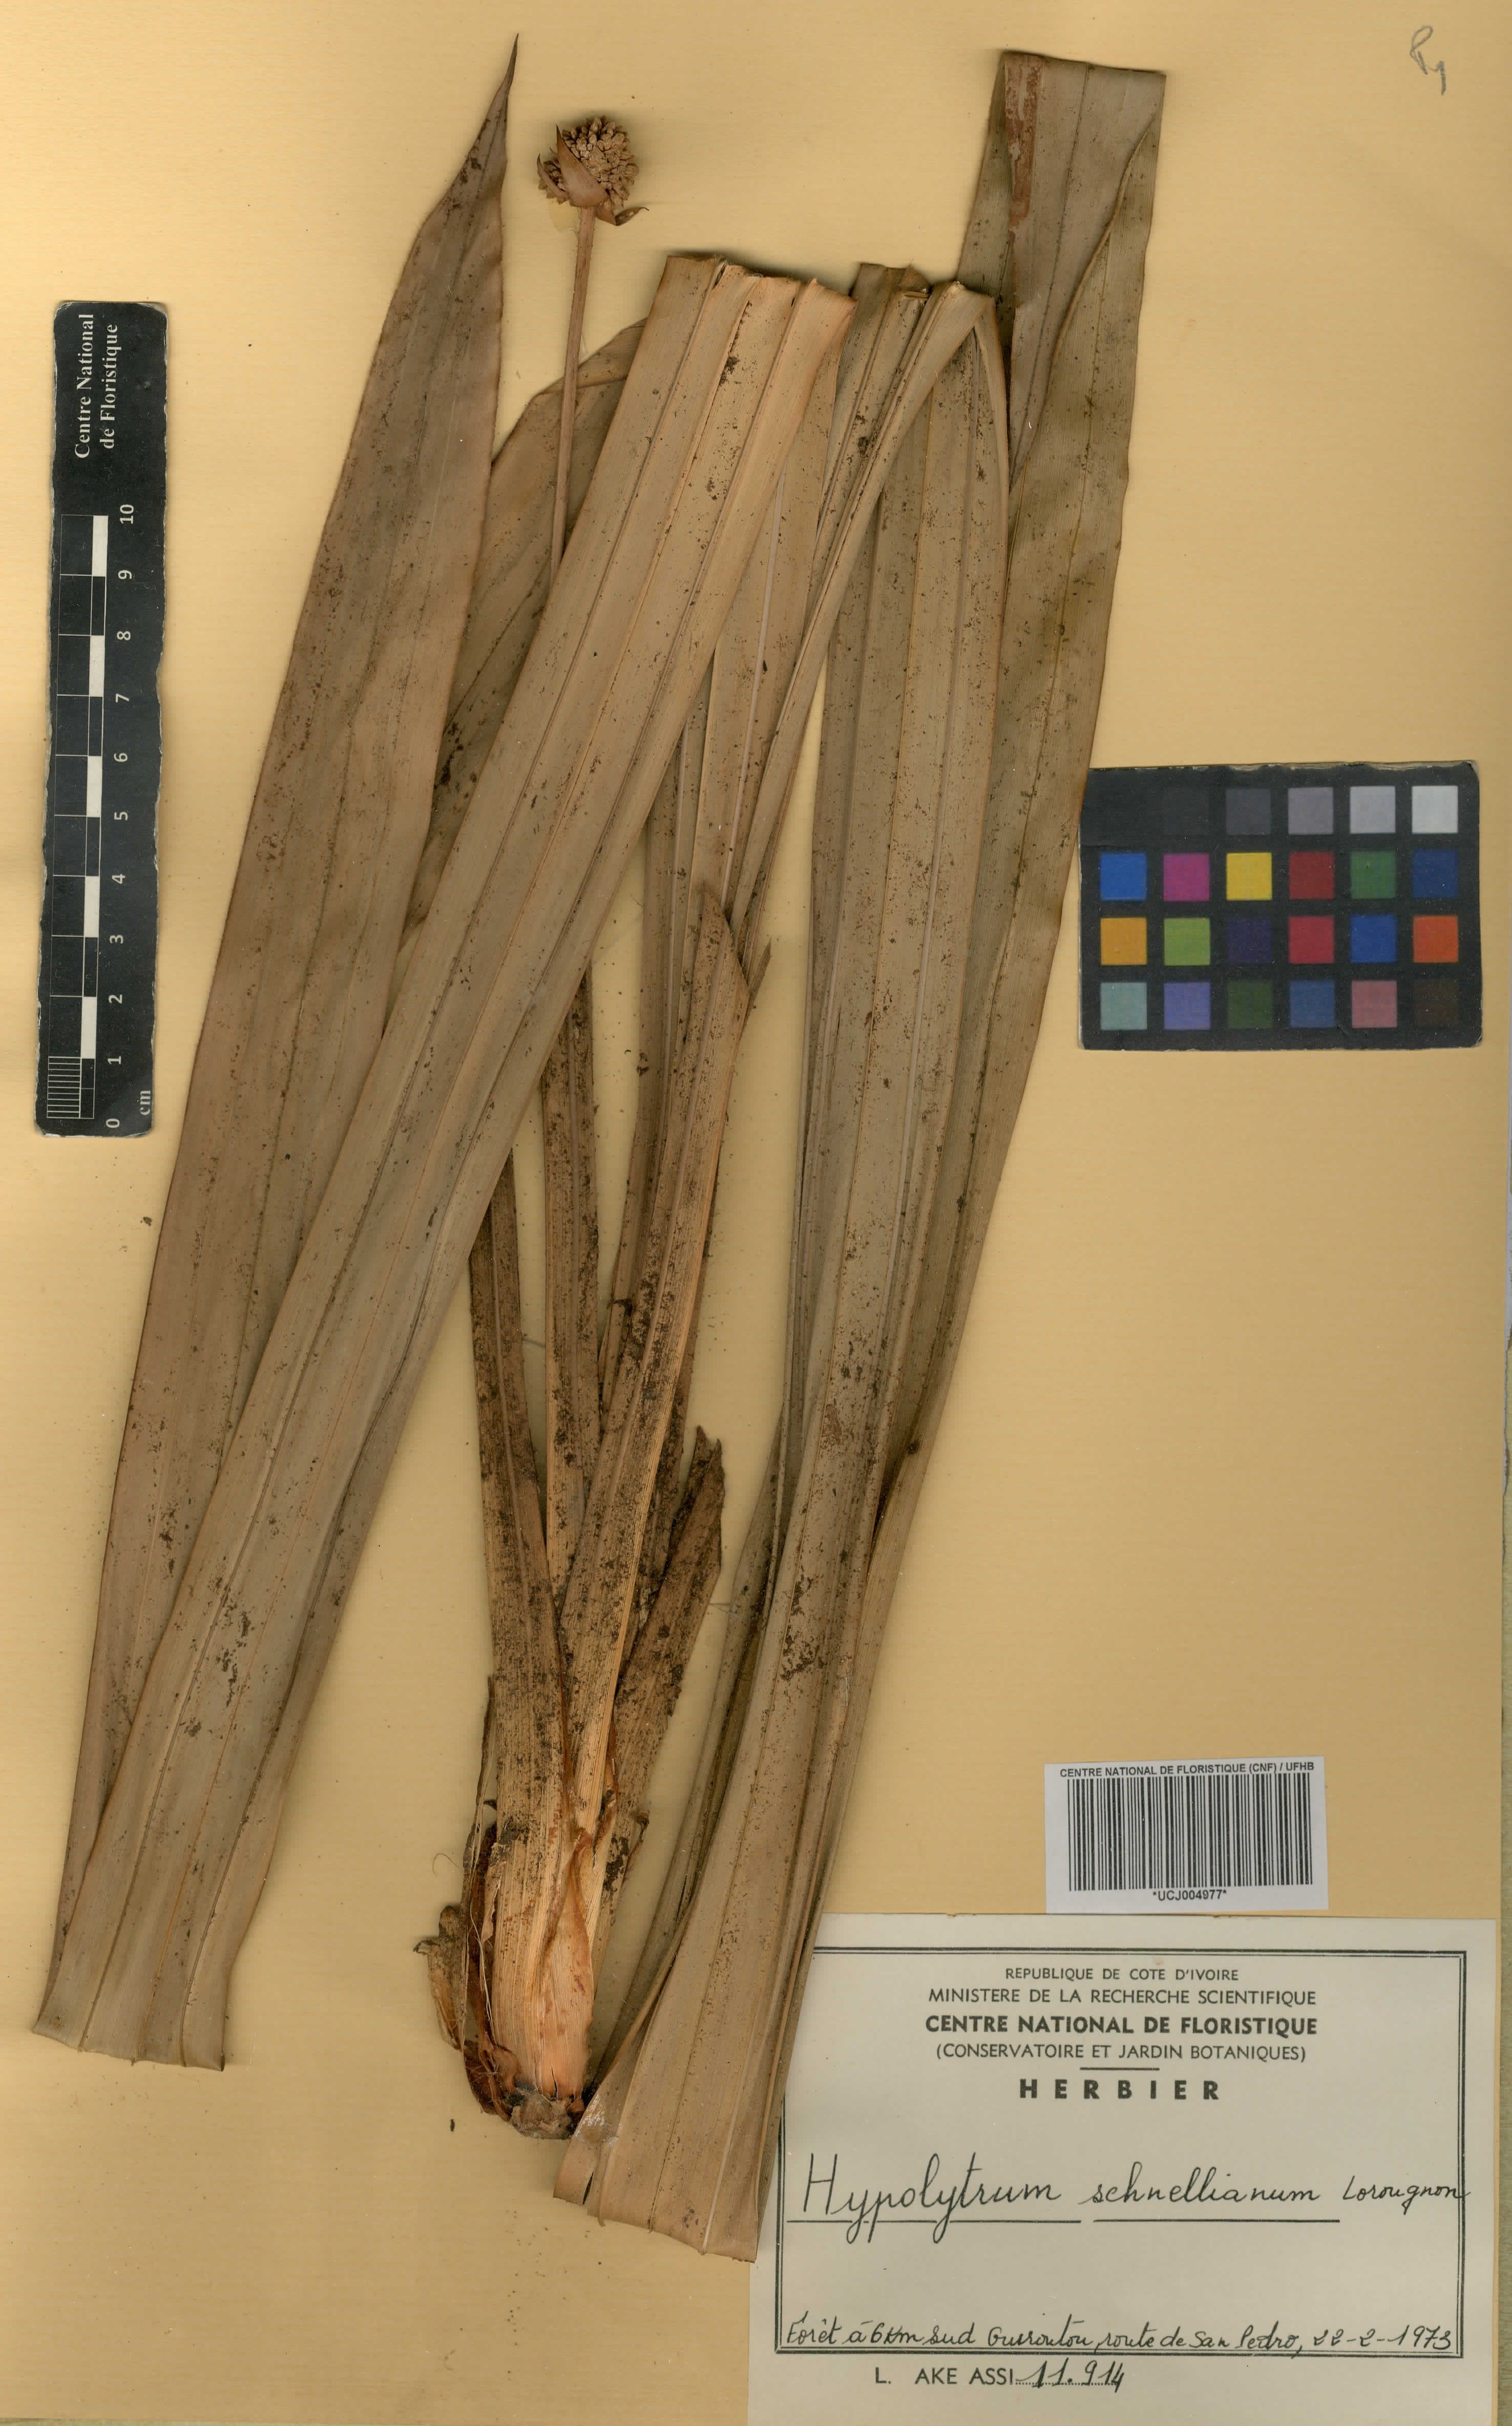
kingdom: Plantae
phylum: Tracheophyta
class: Liliopsida
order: Poales
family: Cyperaceae
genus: Hypolytrum
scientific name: Hypolytrum schnellianum
